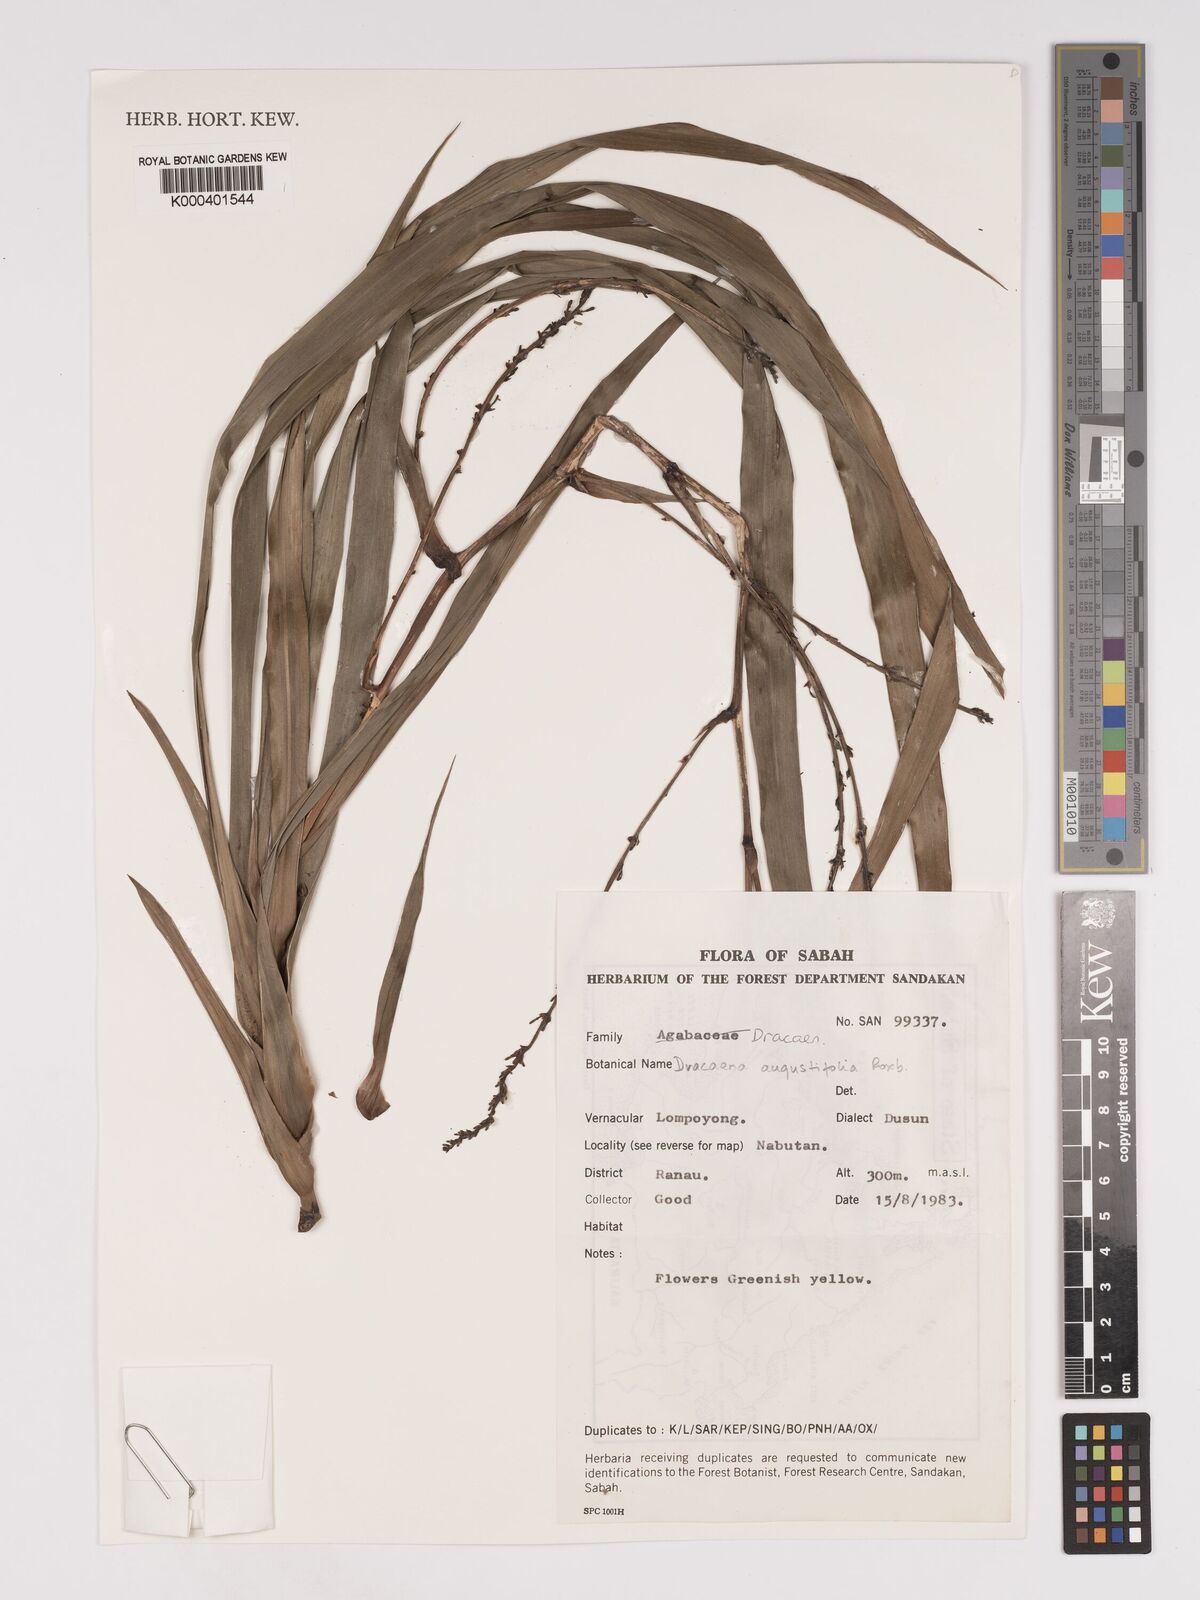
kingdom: Plantae
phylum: Tracheophyta
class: Liliopsida
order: Asparagales
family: Asparagaceae
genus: Dracaena
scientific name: Dracaena angustifolia
